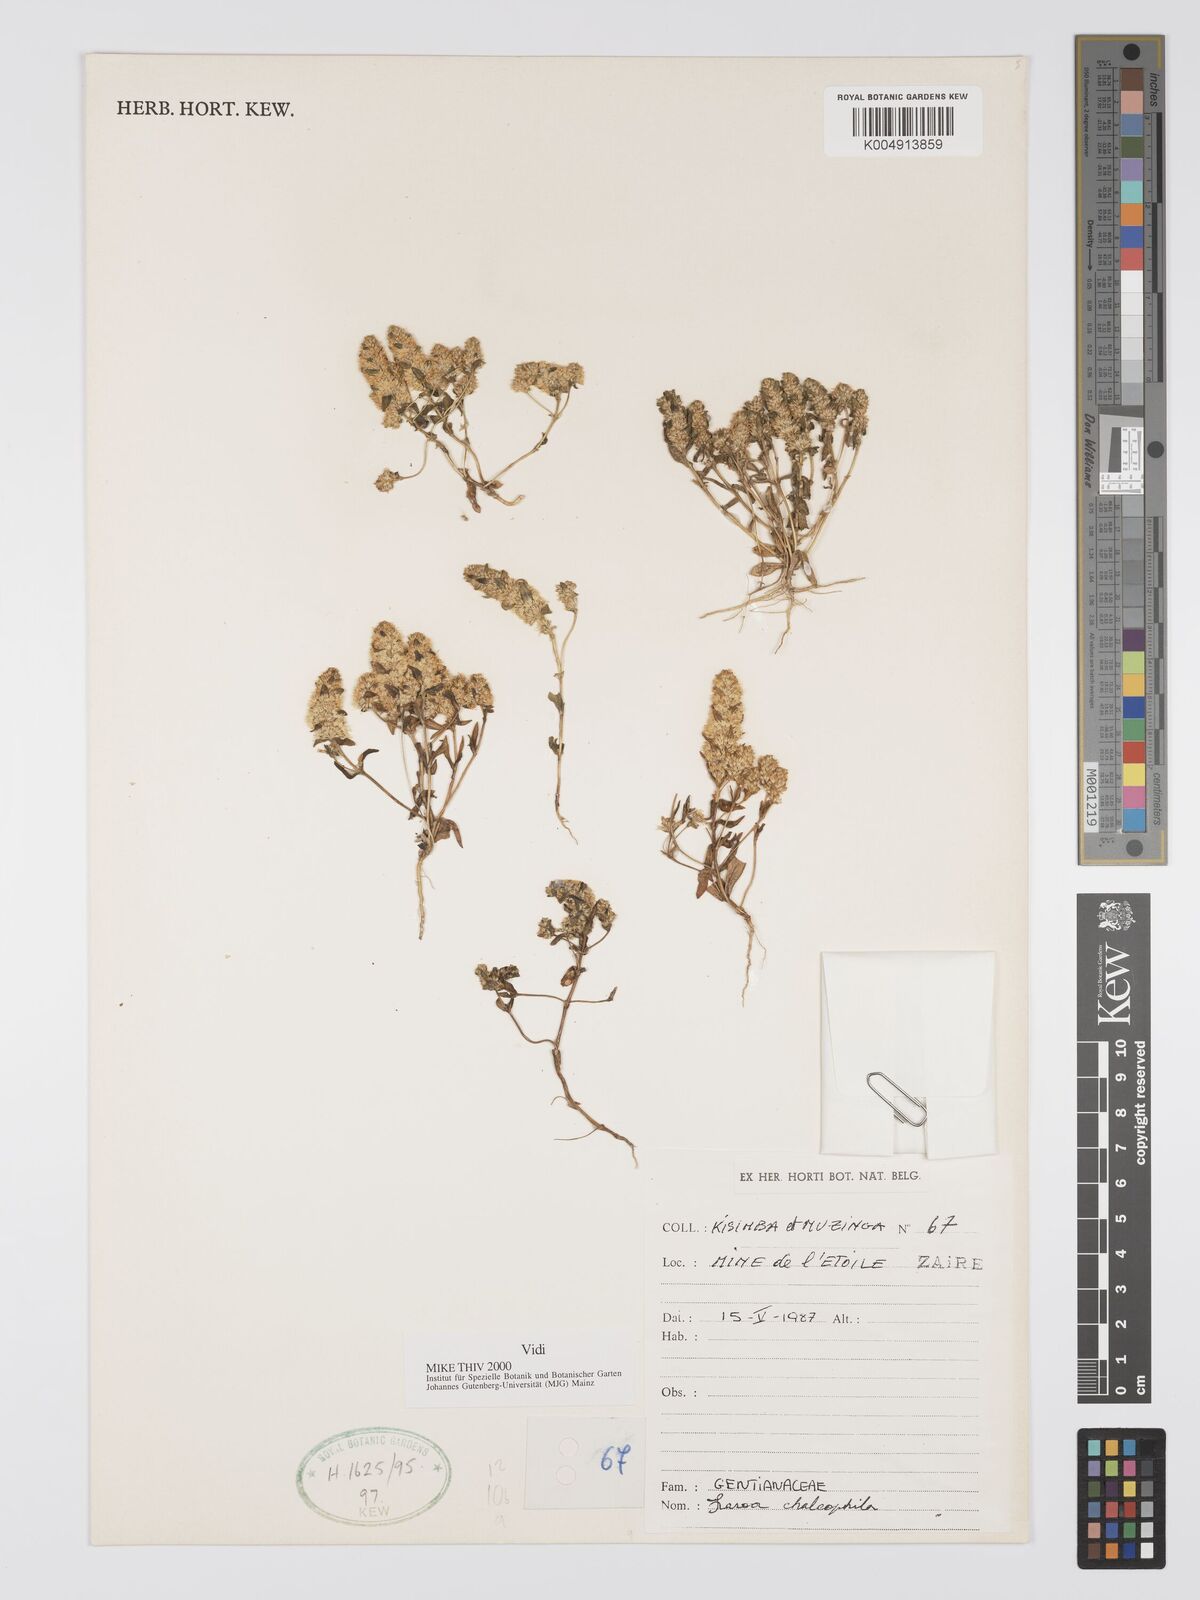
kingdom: Plantae
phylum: Tracheophyta
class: Magnoliopsida
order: Gentianales
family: Gentianaceae
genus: Faroa
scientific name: Faroa chalcophila
